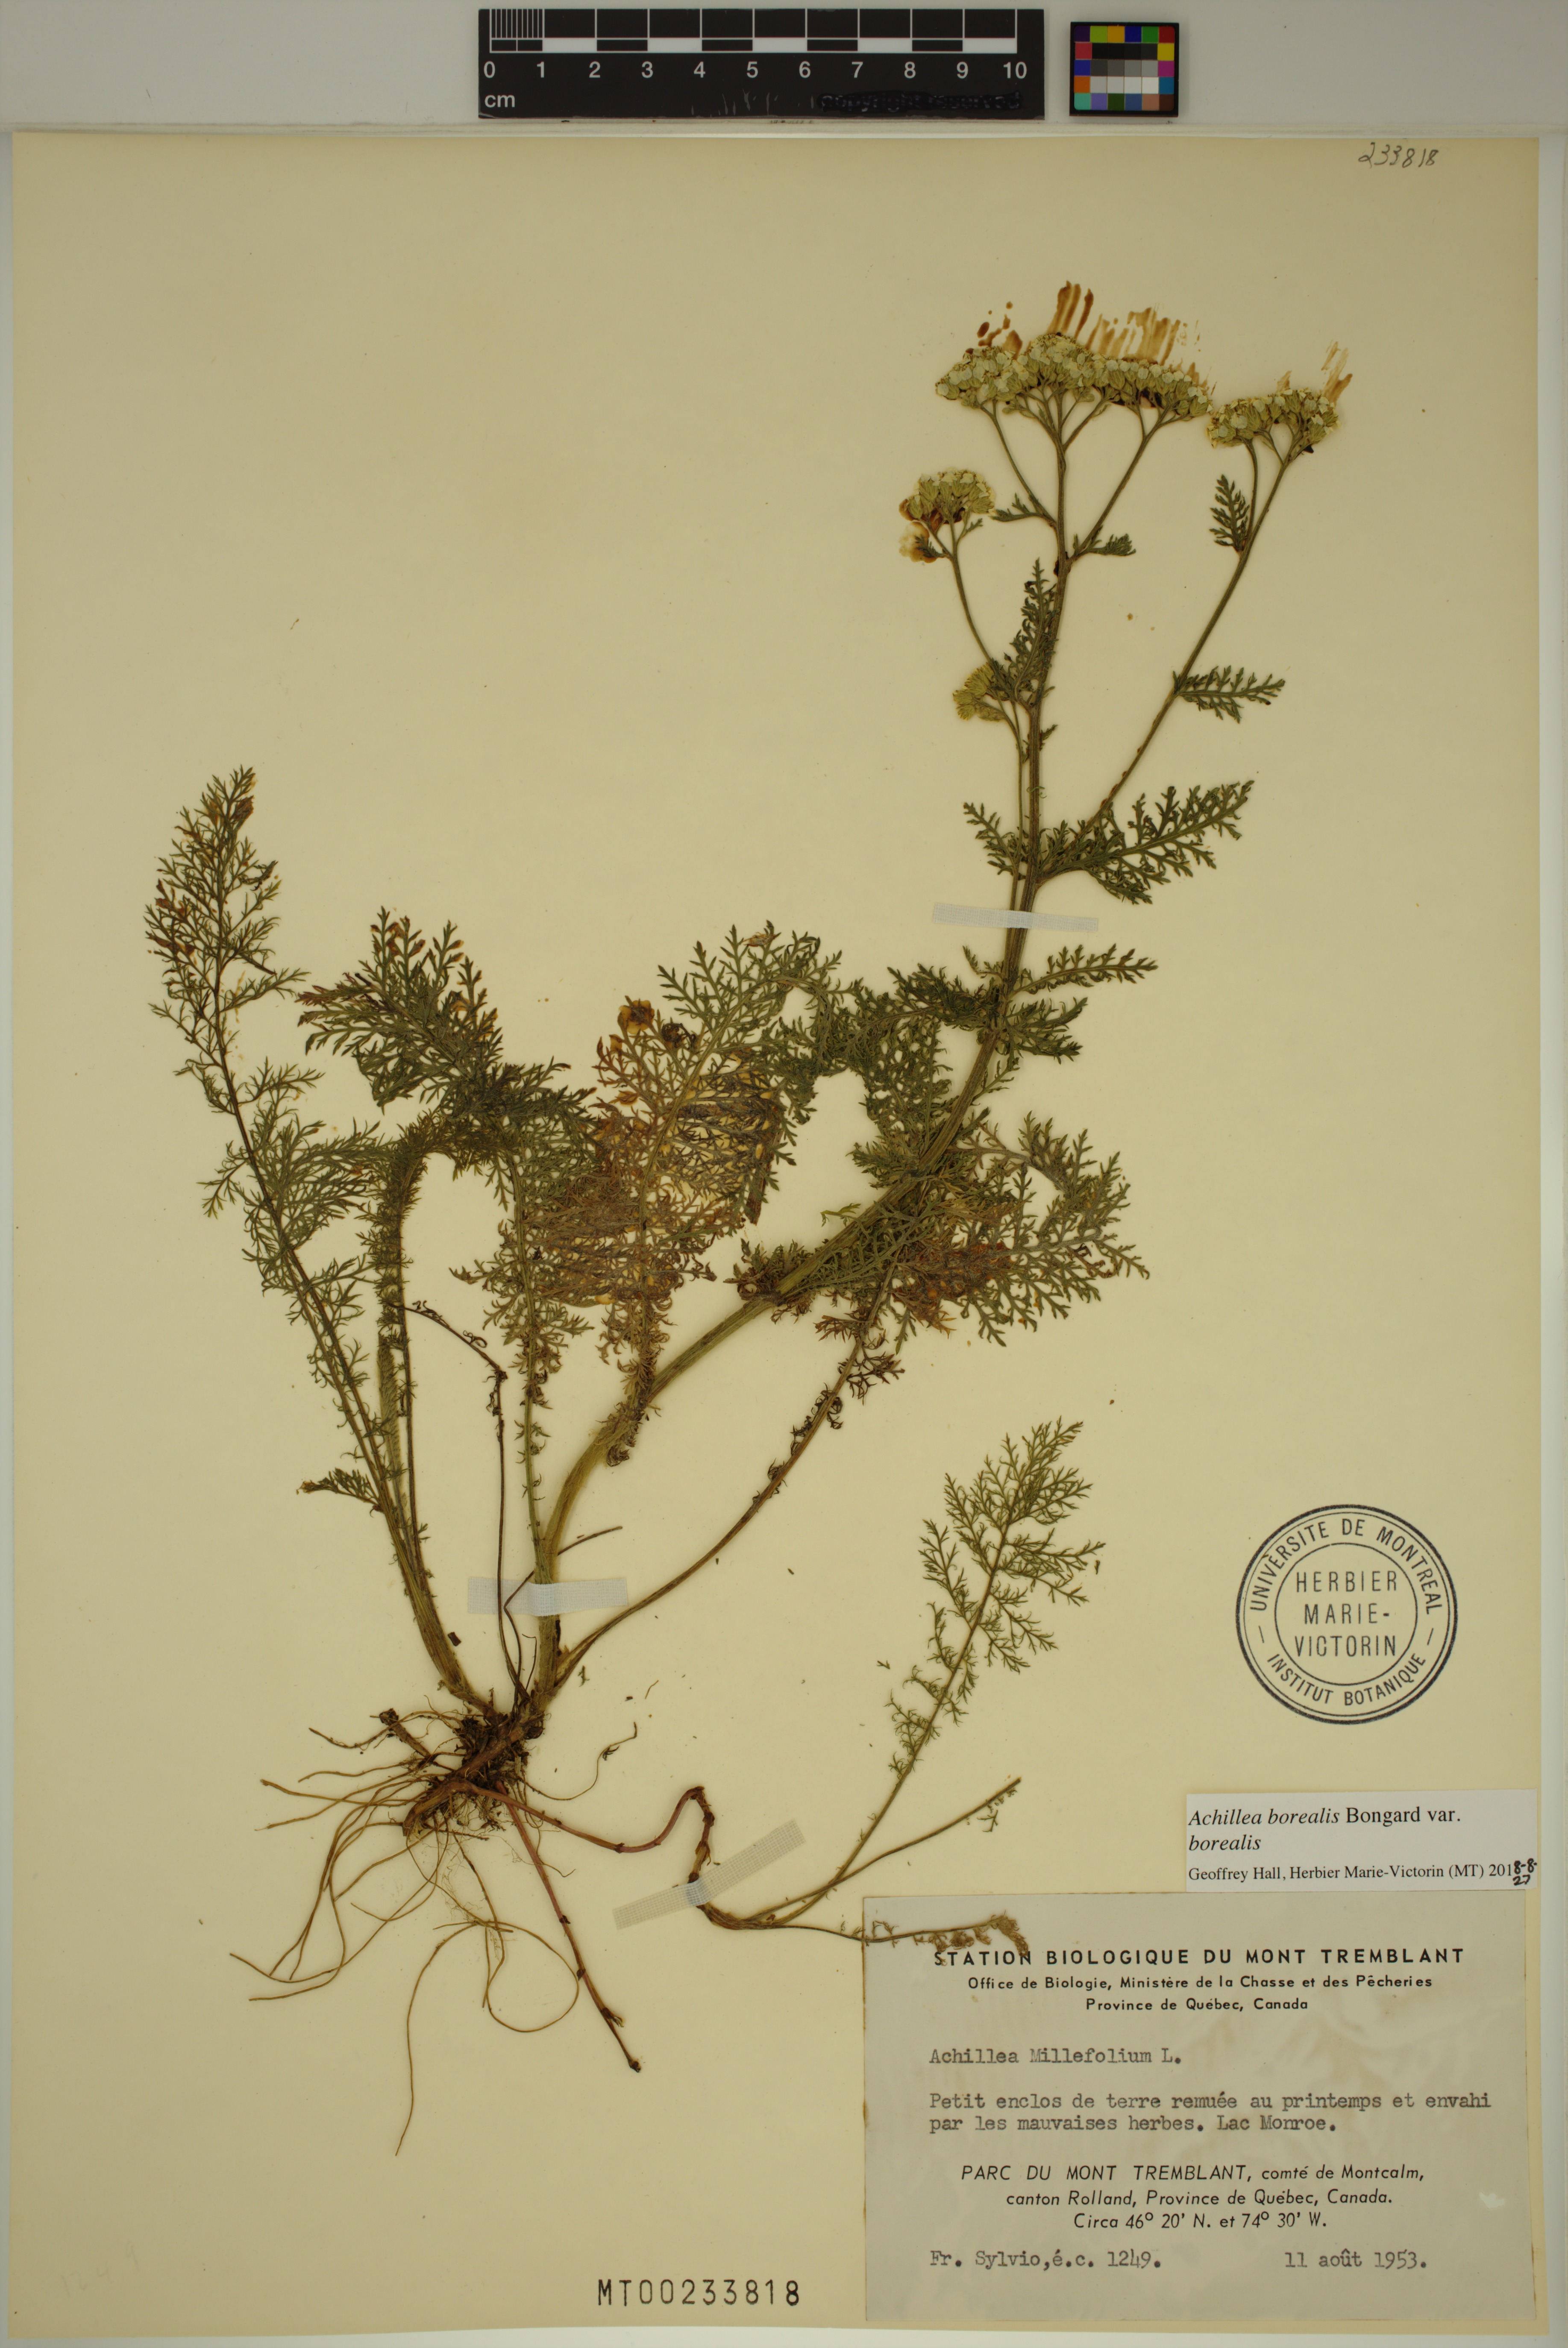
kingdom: Plantae
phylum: Tracheophyta
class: Magnoliopsida
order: Asterales
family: Asteraceae
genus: Achillea
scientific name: Achillea millefolium
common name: Yarrow
